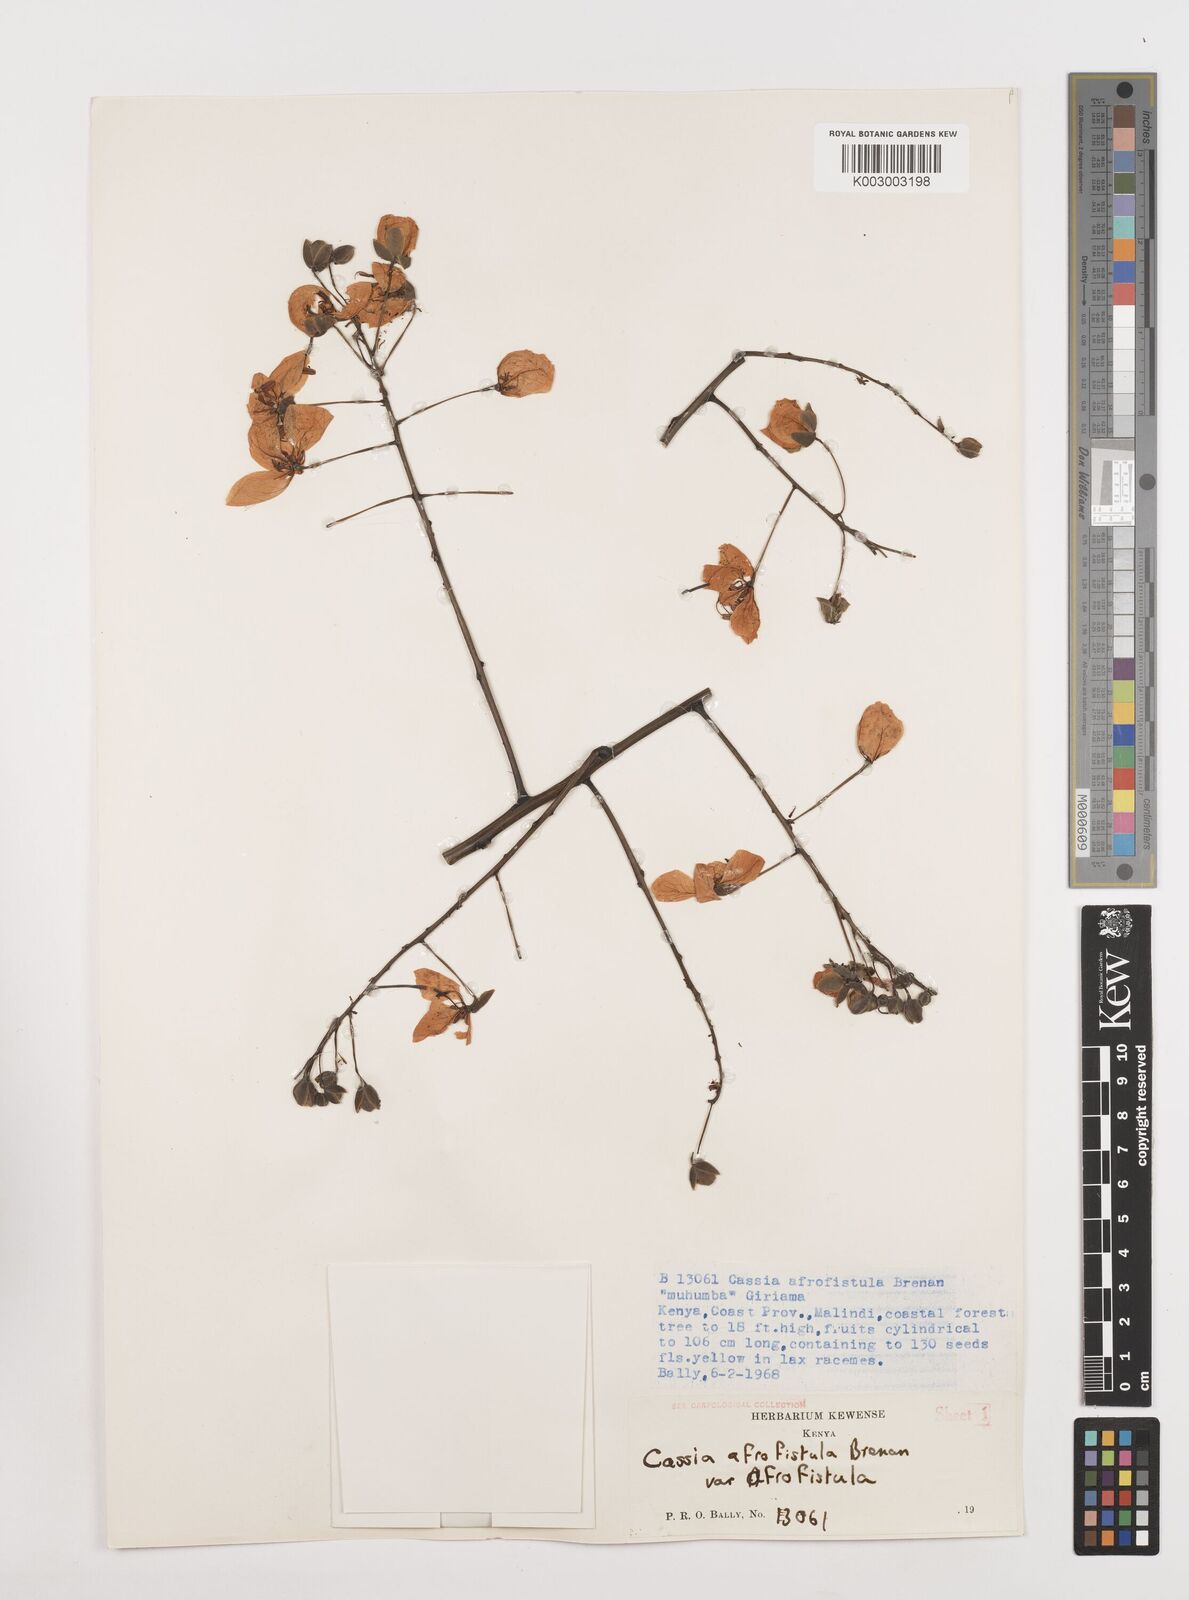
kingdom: Plantae
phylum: Tracheophyta
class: Magnoliopsida
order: Fabales
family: Fabaceae
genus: Cassia
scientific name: Cassia afrofistula
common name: Kenyan shower
